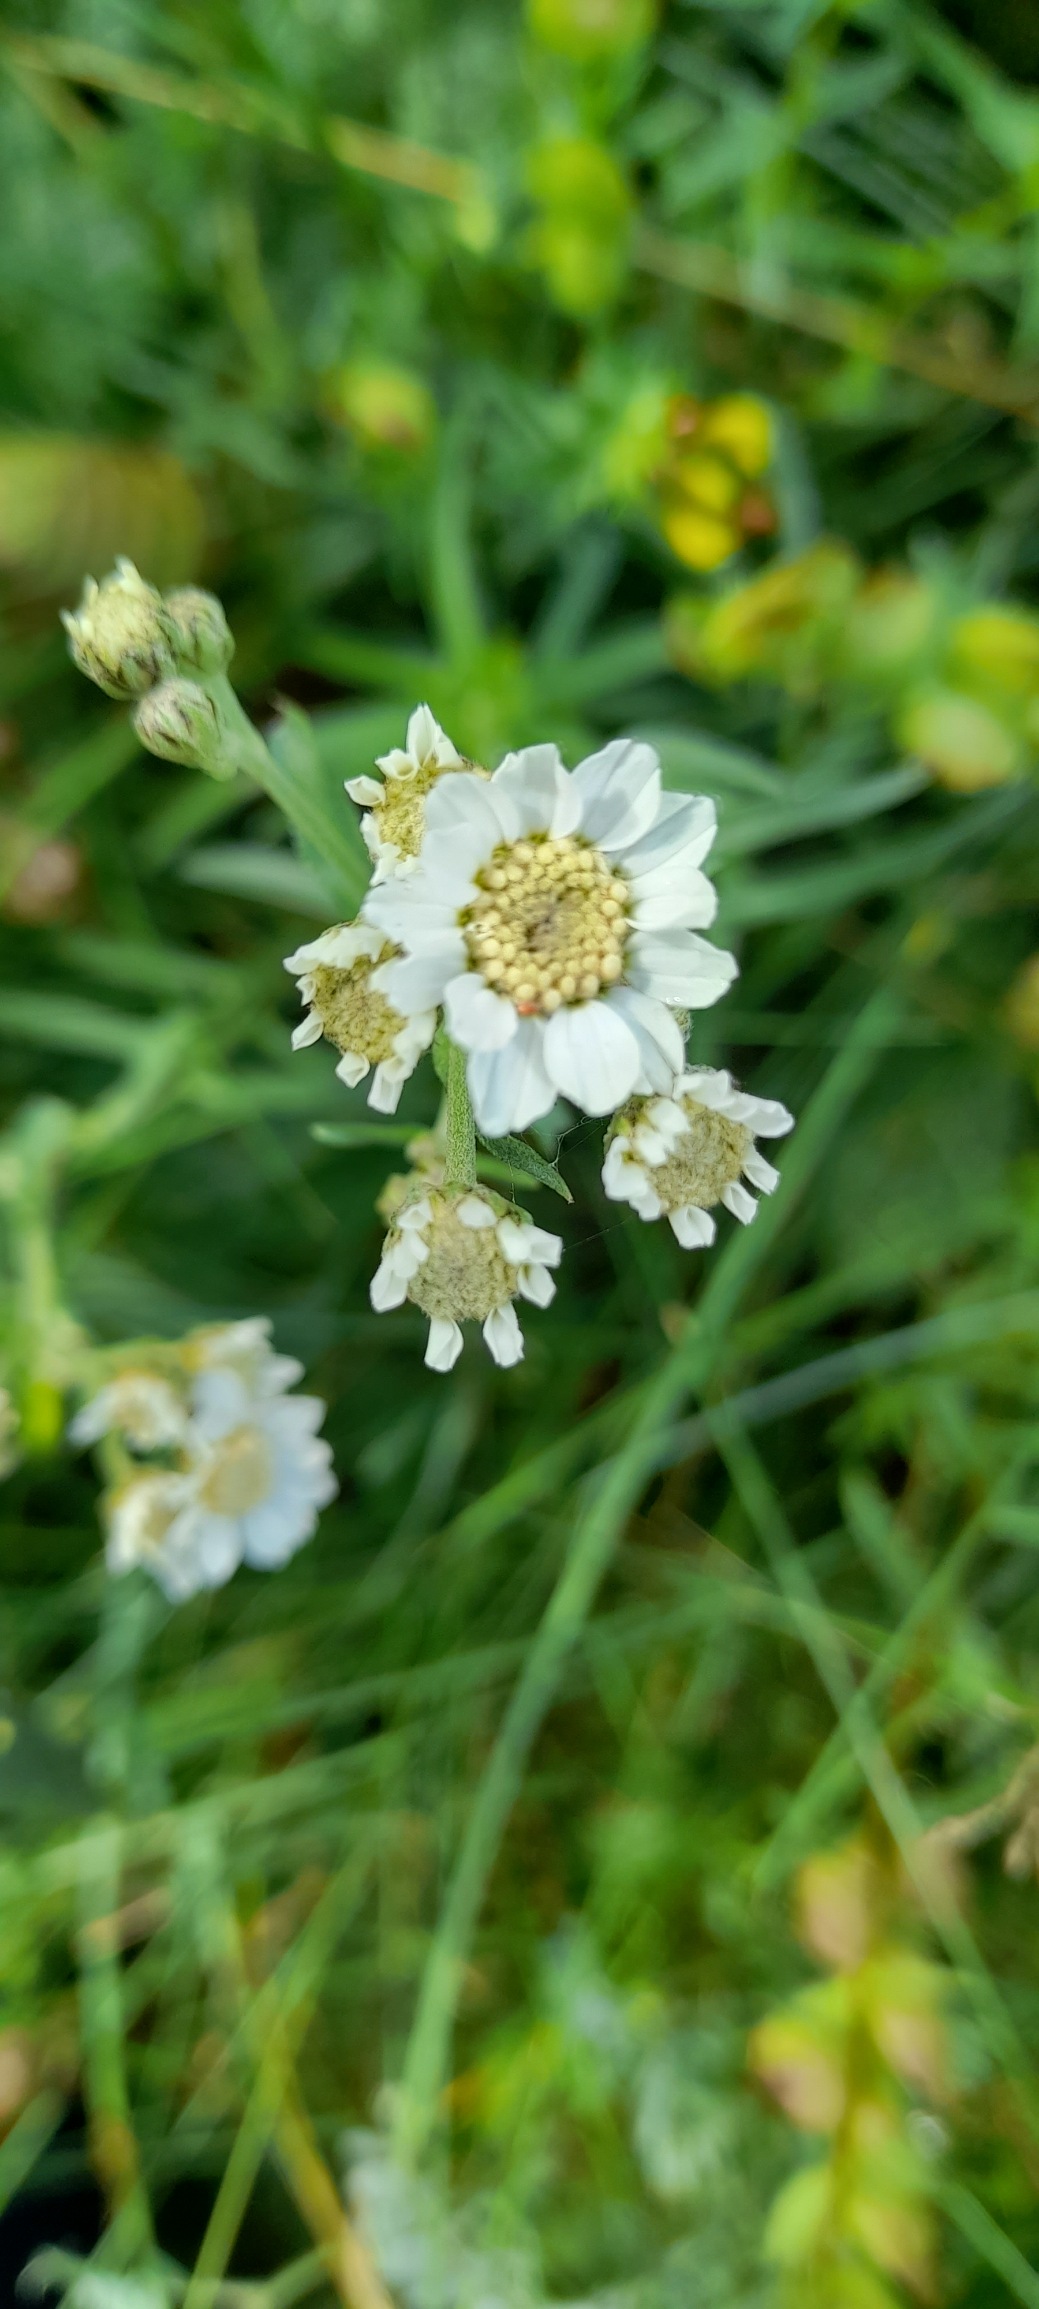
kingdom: Plantae
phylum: Tracheophyta
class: Magnoliopsida
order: Asterales
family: Asteraceae
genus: Achillea
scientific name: Achillea ptarmica
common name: Nyse-røllike
